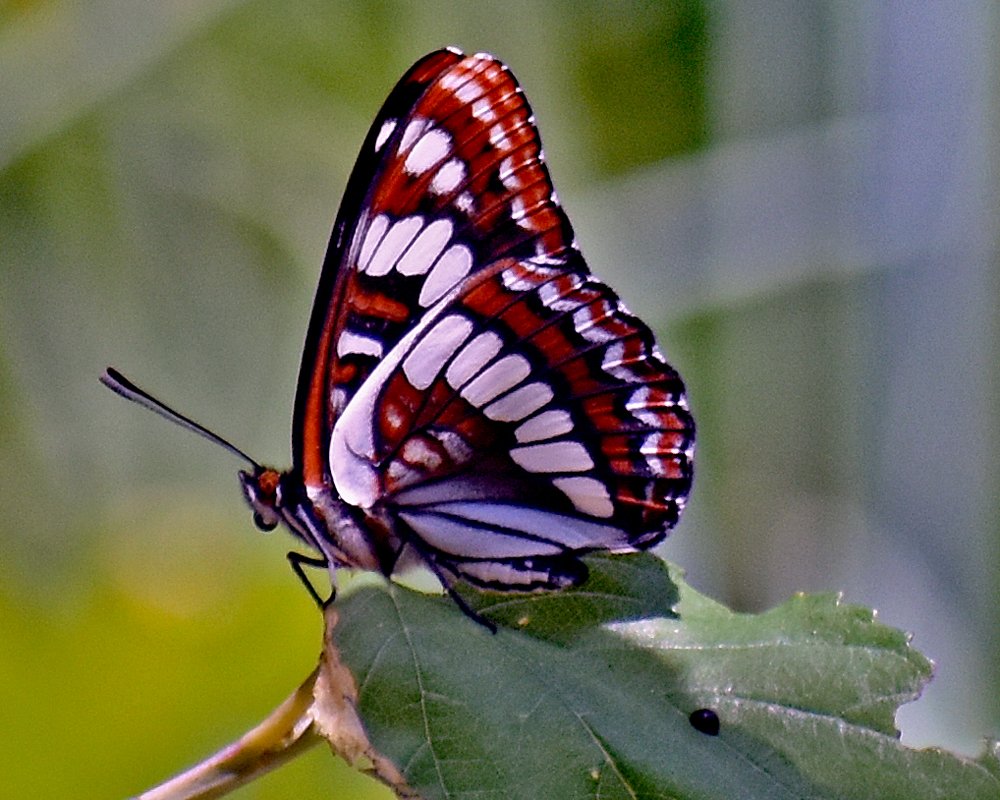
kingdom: Animalia
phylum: Arthropoda
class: Insecta
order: Lepidoptera
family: Nymphalidae
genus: Limenitis
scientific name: Limenitis lorquini
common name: Lorquin's Admiral
